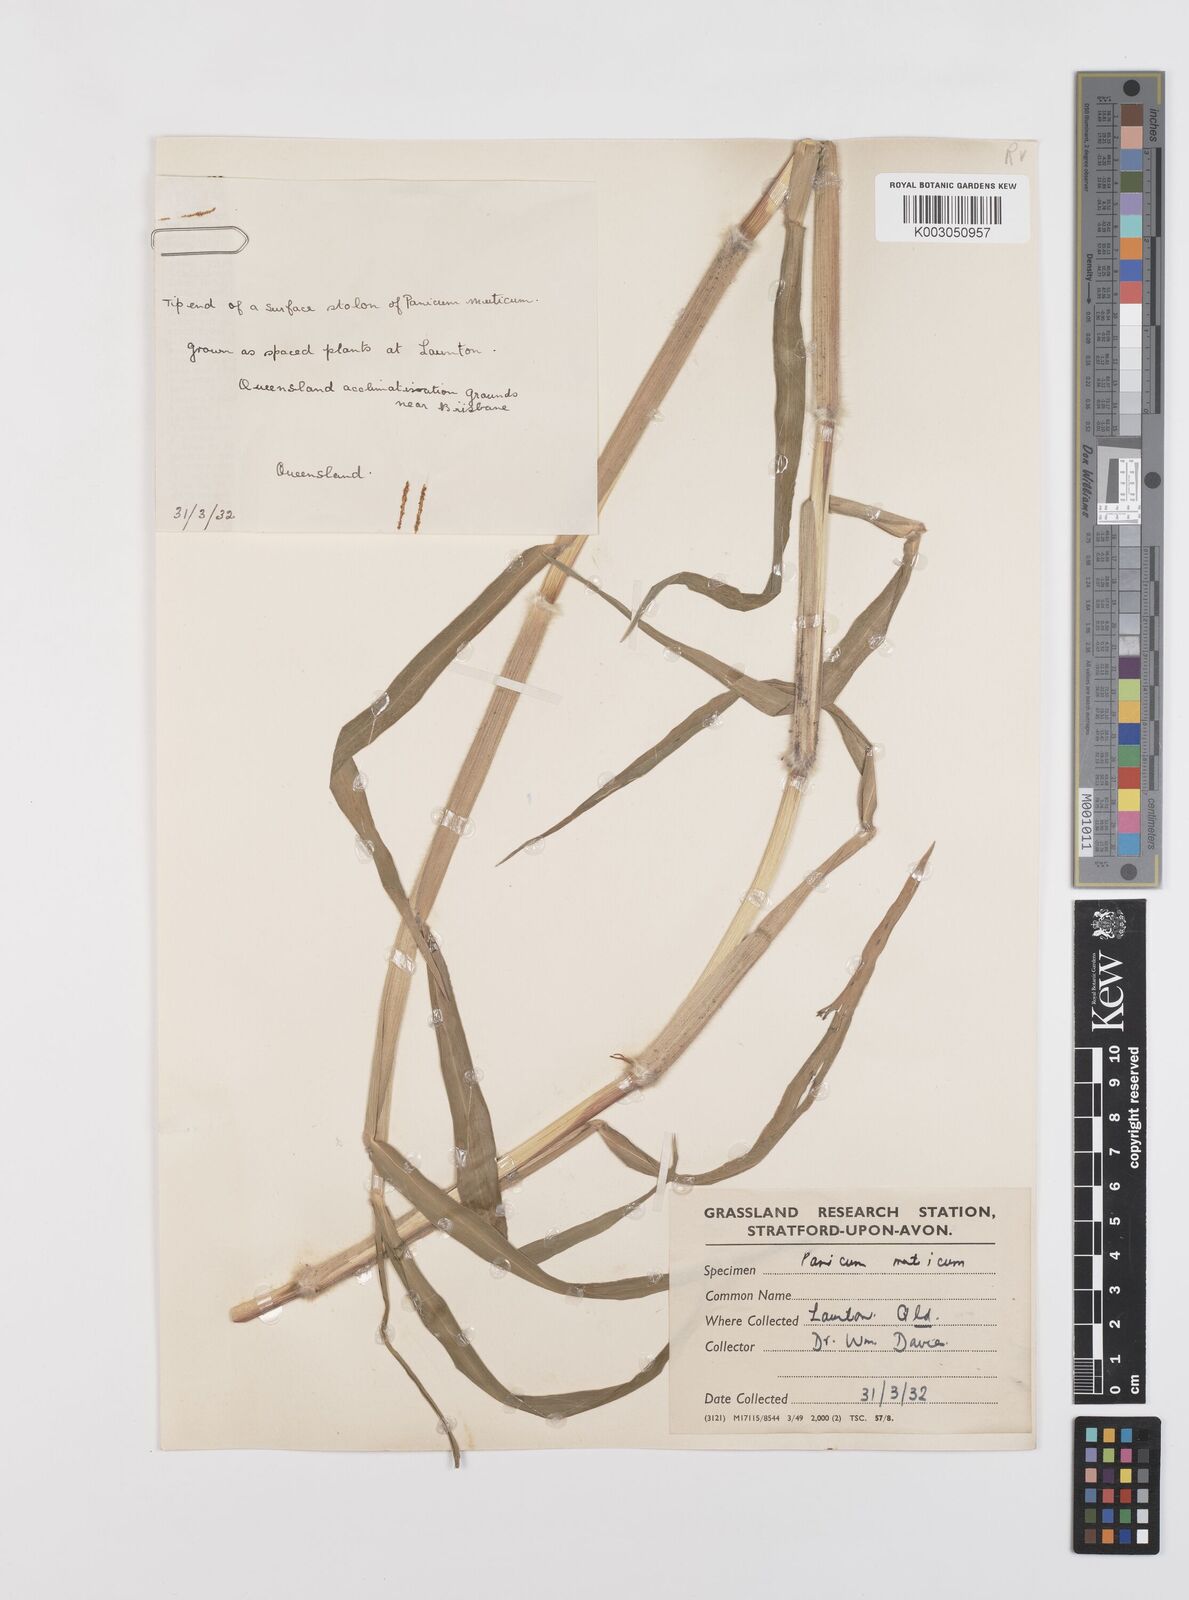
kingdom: Plantae
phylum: Tracheophyta
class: Liliopsida
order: Poales
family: Poaceae
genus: Urochloa
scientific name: Urochloa mutica
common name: Para grass
